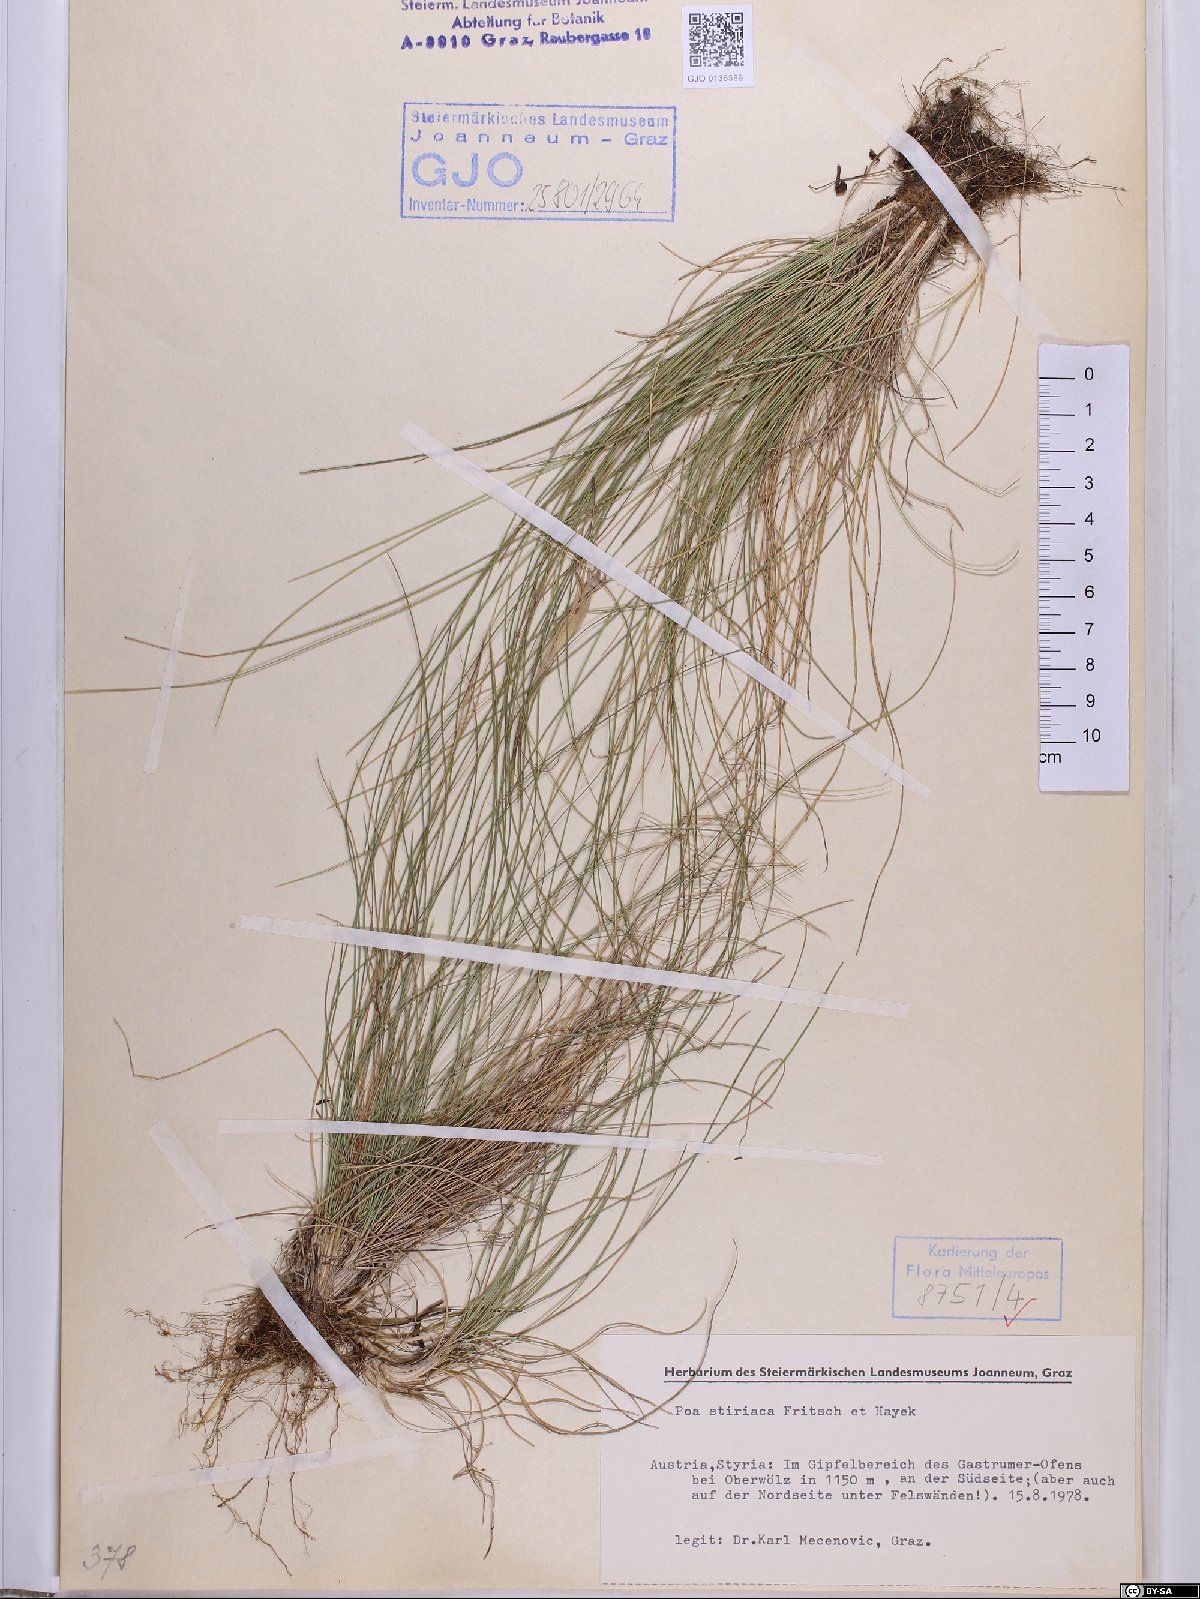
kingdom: Plantae
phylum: Tracheophyta
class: Liliopsida
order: Poales
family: Poaceae
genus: Poa
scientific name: Poa stiriaca
